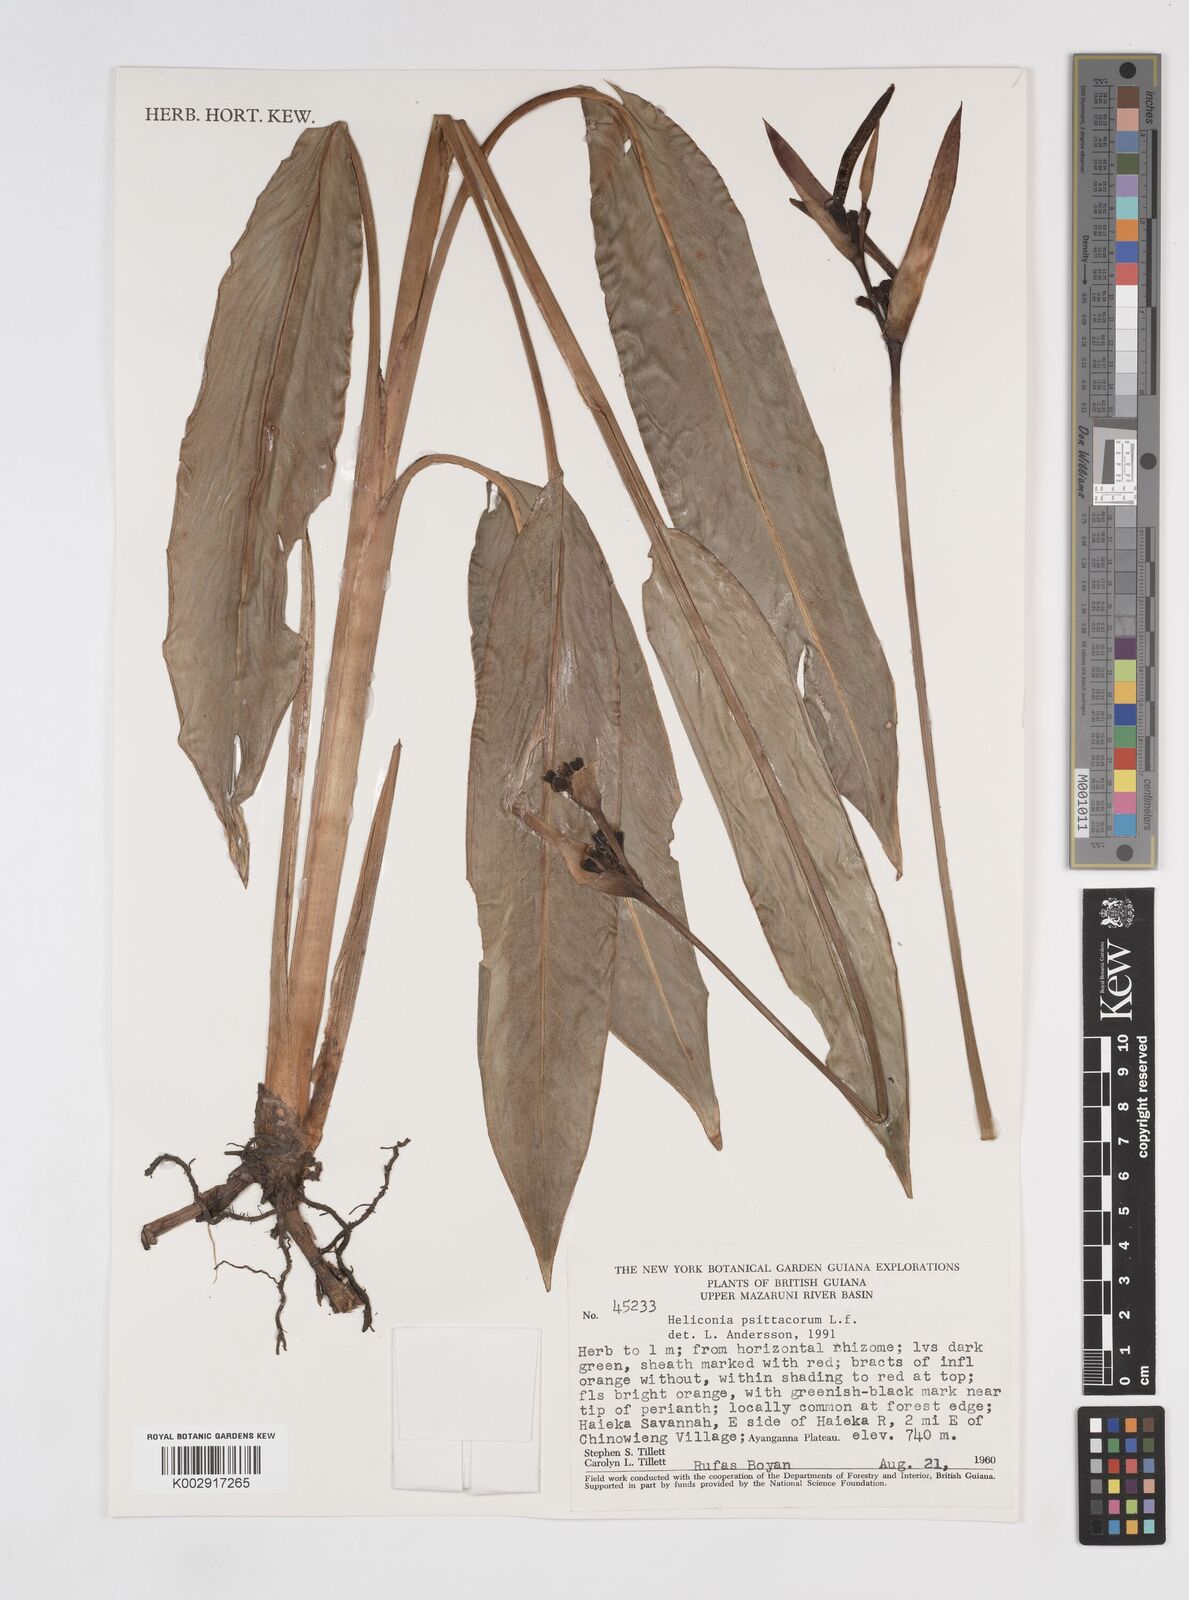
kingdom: Plantae
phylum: Tracheophyta
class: Liliopsida
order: Zingiberales
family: Heliconiaceae
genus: Heliconia
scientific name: Heliconia psittacorum
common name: Parrot's-flower
